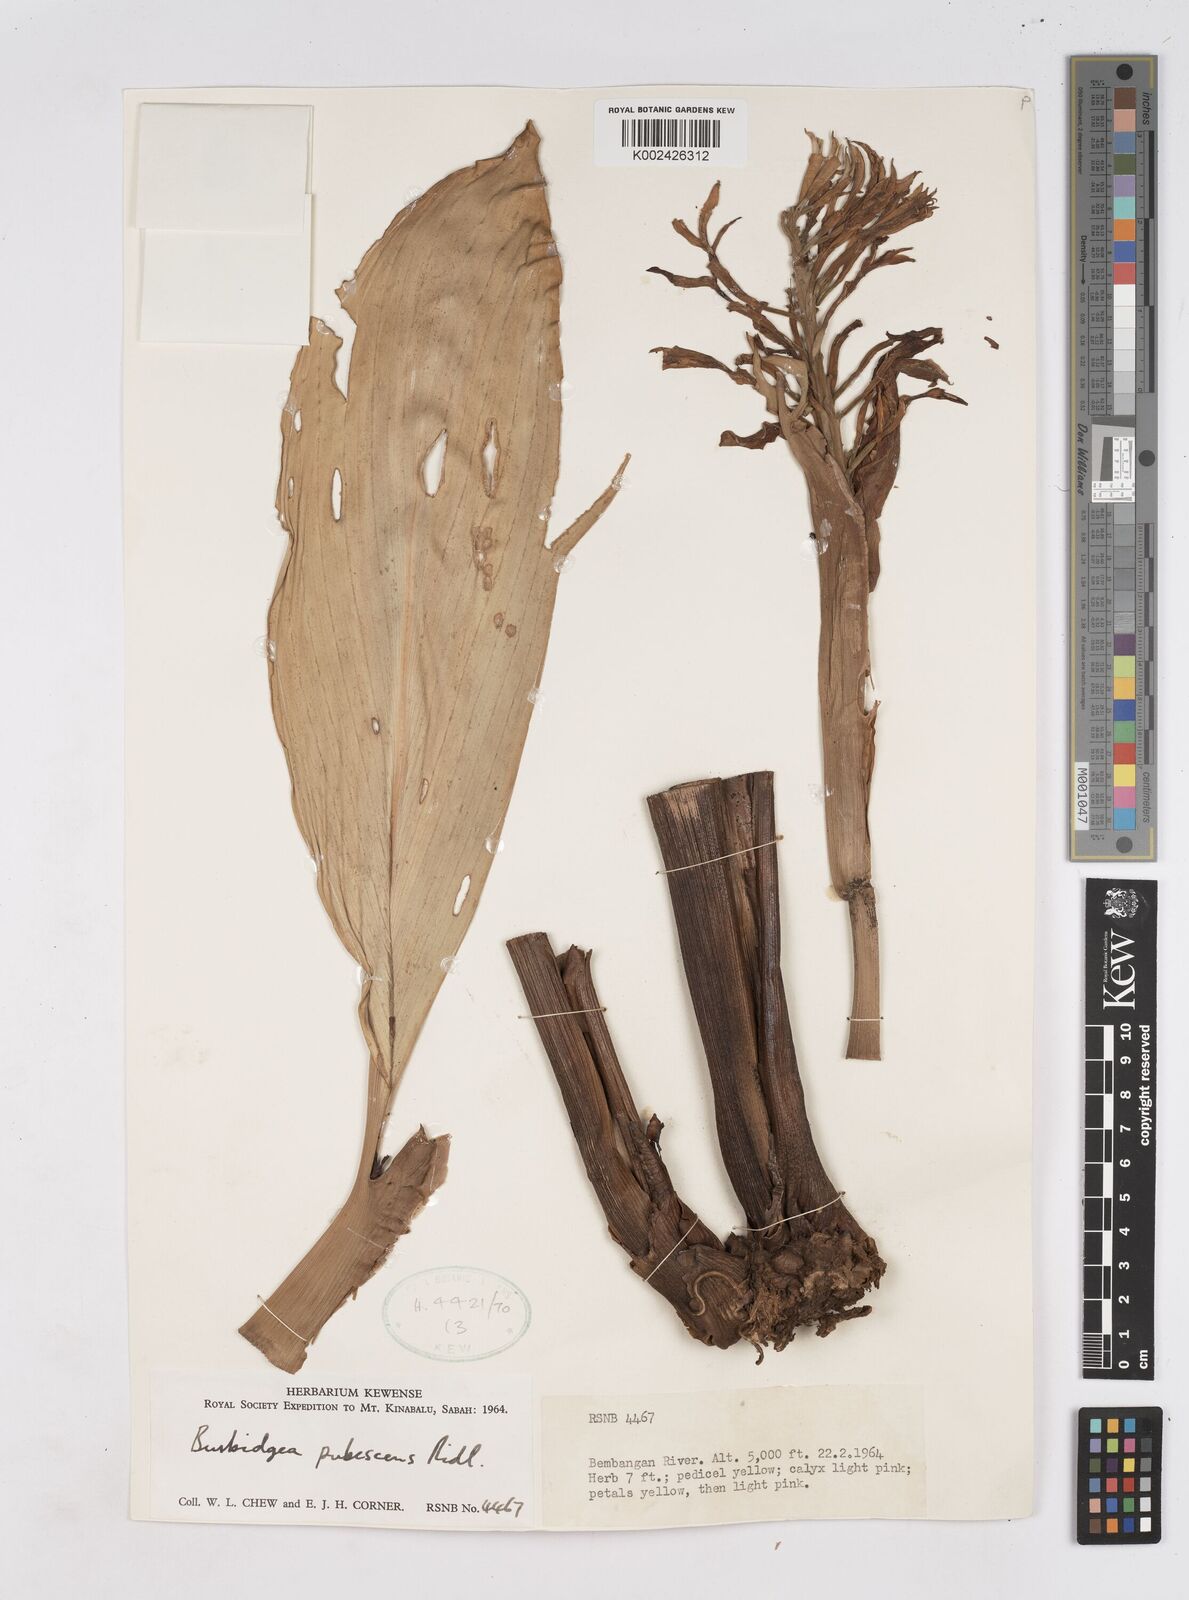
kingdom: Plantae
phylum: Tracheophyta
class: Liliopsida
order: Zingiberales
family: Zingiberaceae
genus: Burbidgea
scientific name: Burbidgea schizocheila
